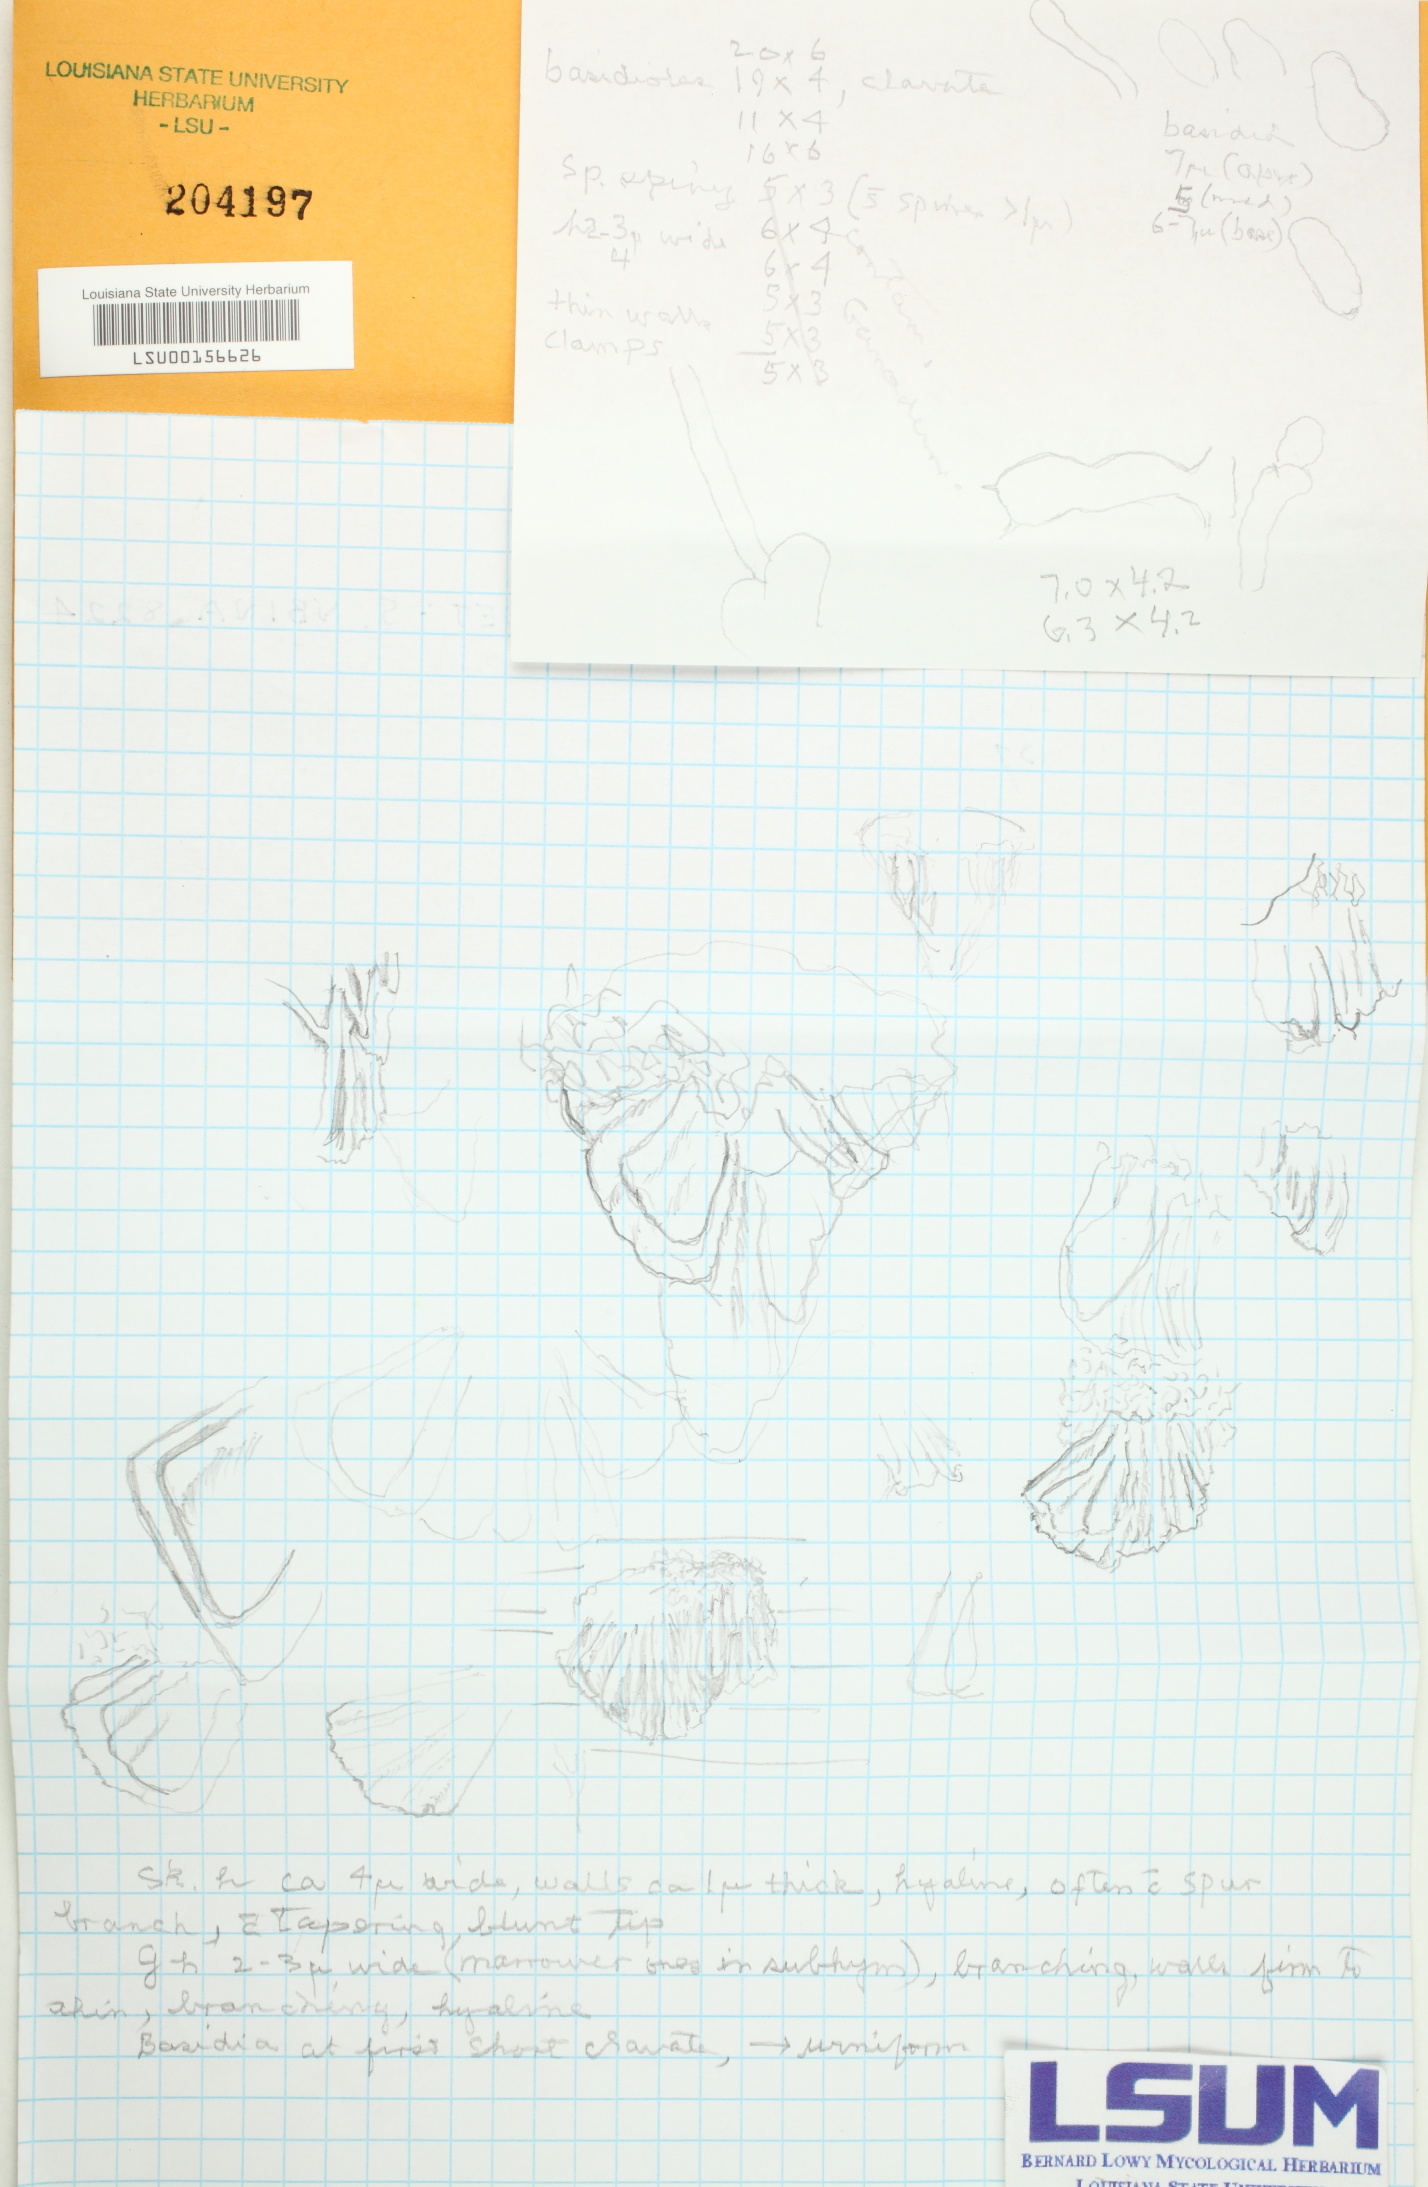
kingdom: Fungi
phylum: Basidiomycota
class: Agaricomycetes
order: Hymenochaetales
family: Schizoporaceae
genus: Fibrodontia
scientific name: Fibrodontia
